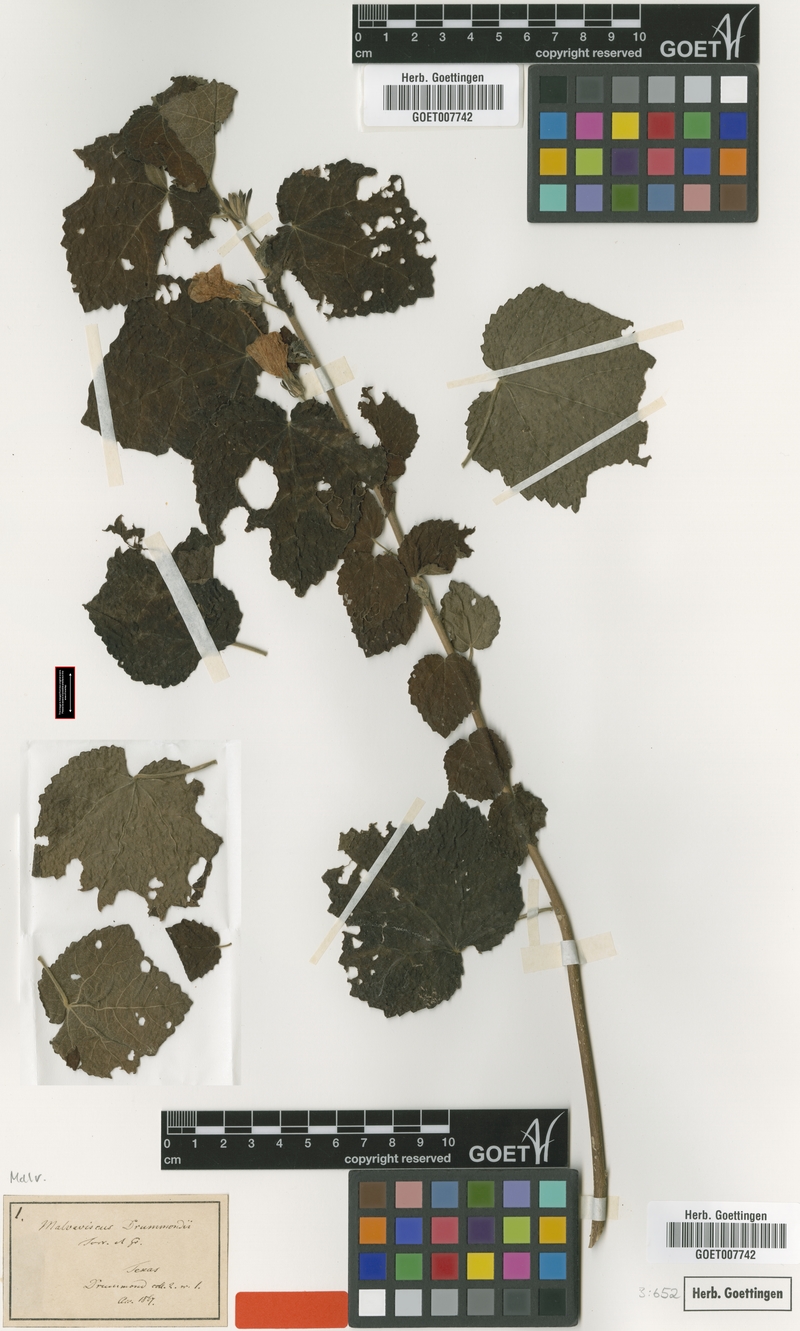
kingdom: Plantae
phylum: Tracheophyta
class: Magnoliopsida
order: Malvales
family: Malvaceae
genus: Malvaviscus
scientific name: Malvaviscus arboreus
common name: Wax mallow
